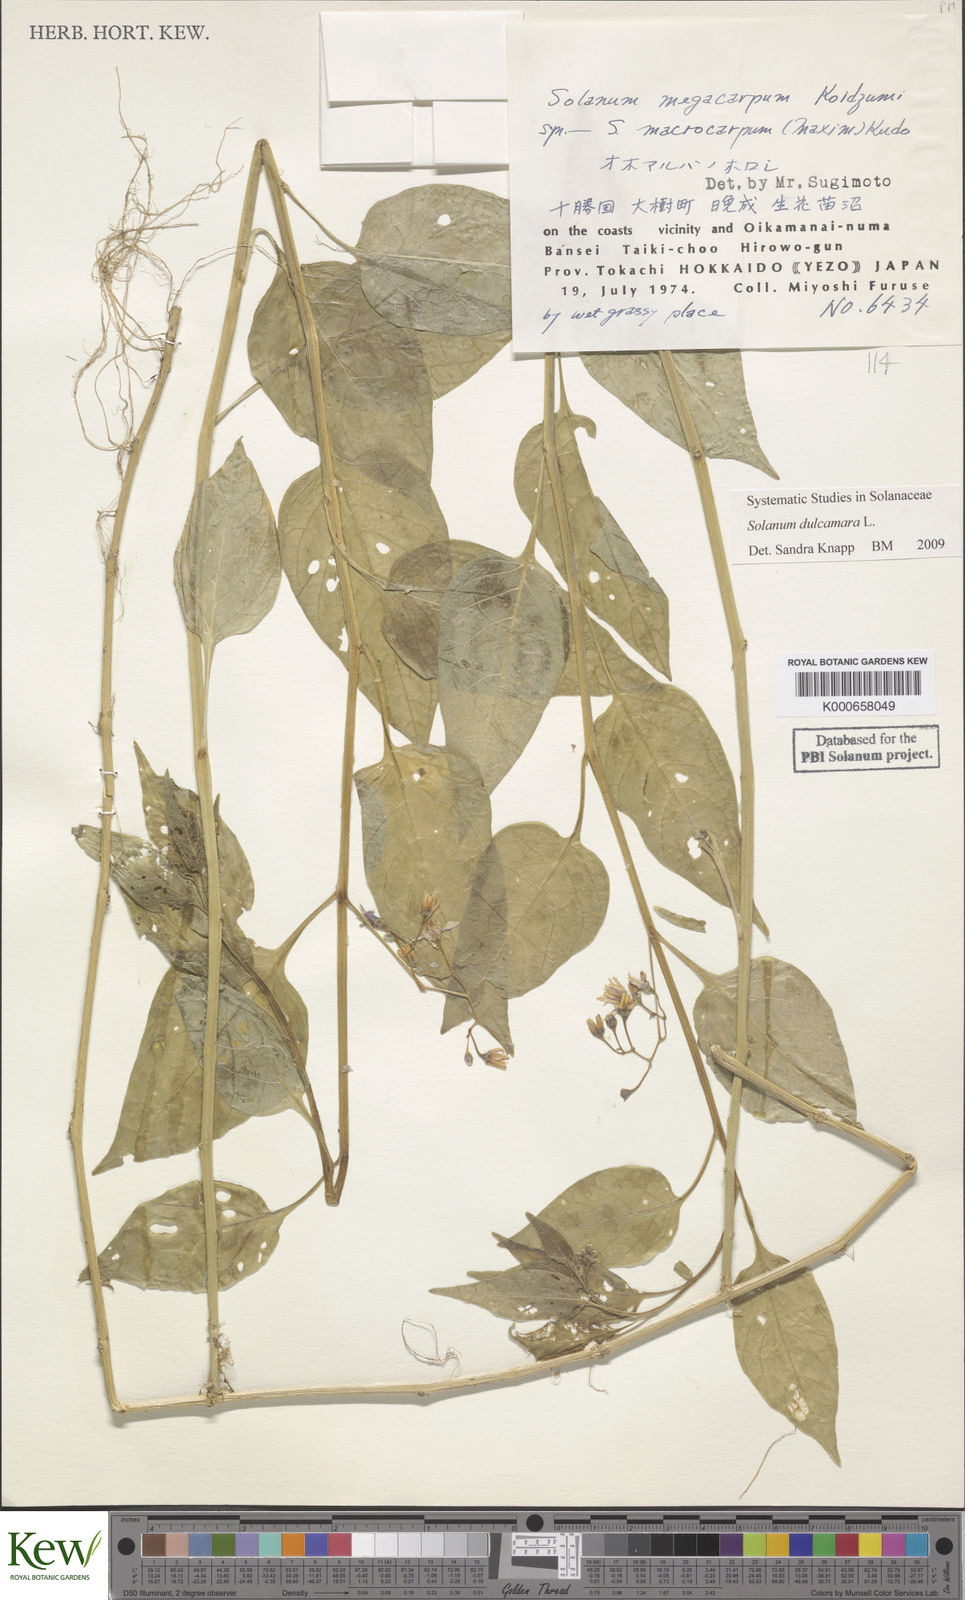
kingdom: Plantae
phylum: Tracheophyta
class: Magnoliopsida
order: Solanales
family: Solanaceae
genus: Solanum
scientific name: Solanum dulcamara
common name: Climbing nightshade
